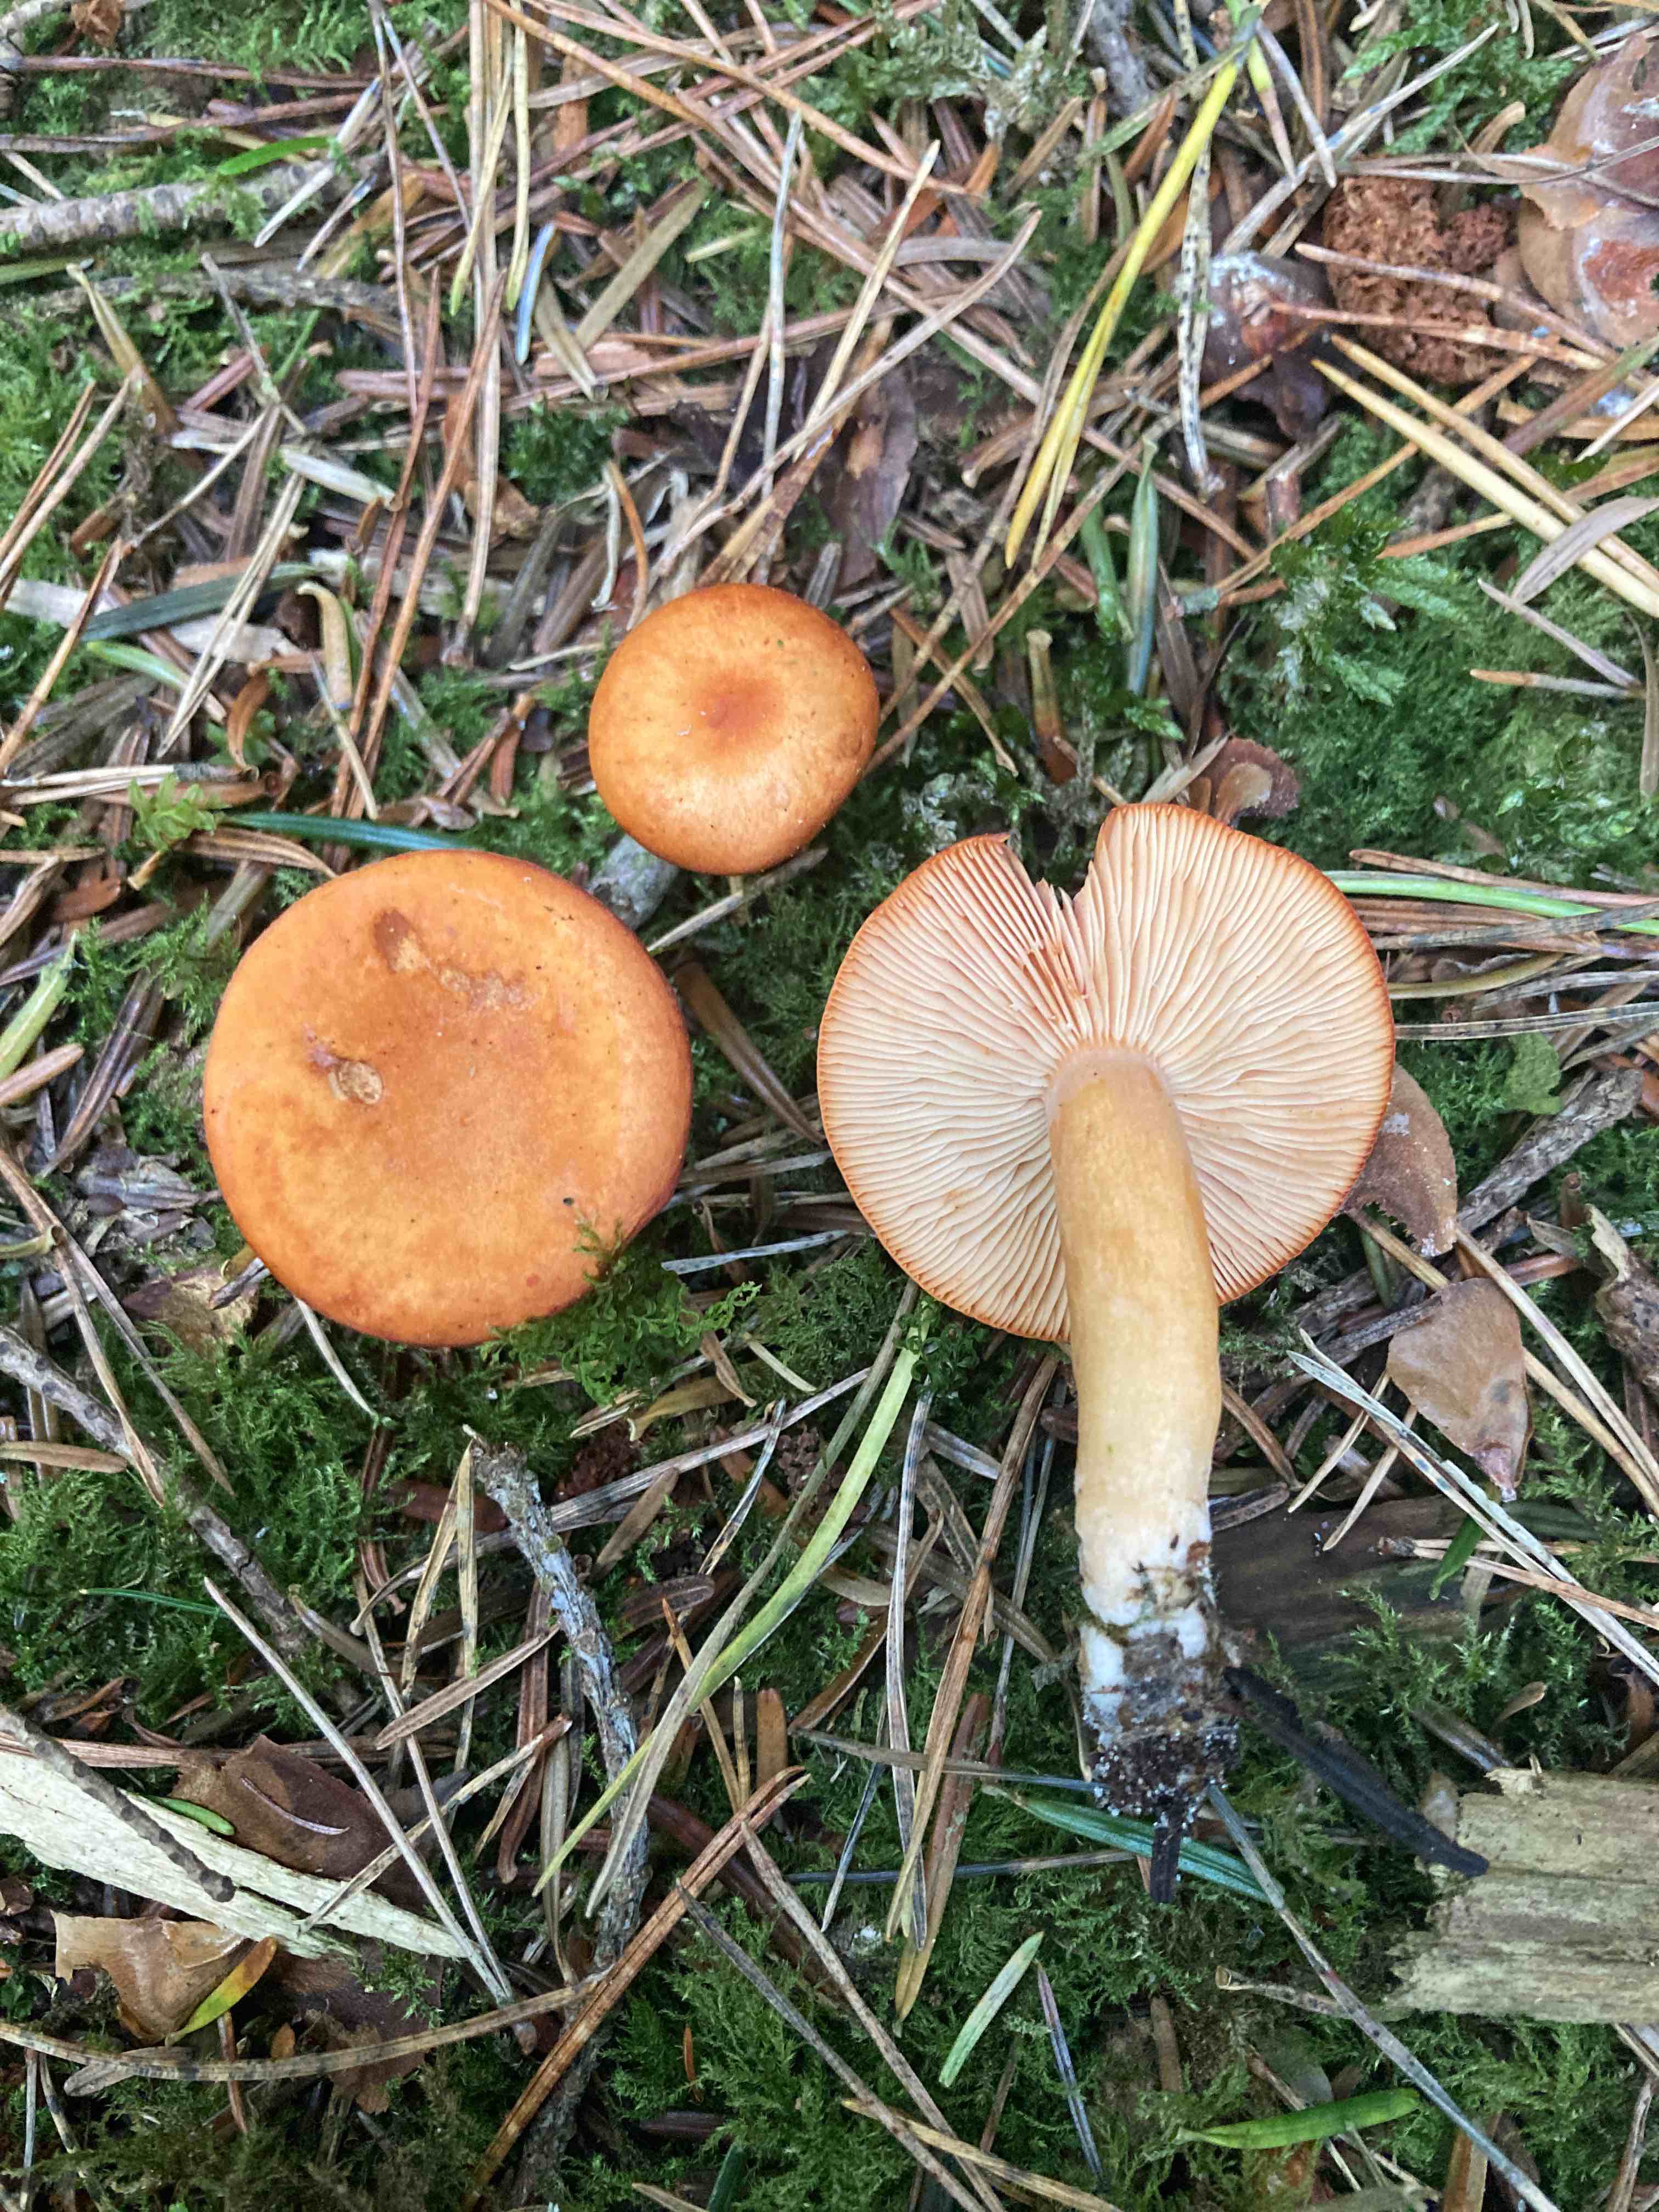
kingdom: Fungi
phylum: Basidiomycota
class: Agaricomycetes
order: Russulales
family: Russulaceae
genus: Lactarius
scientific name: Lactarius aurantiacus
